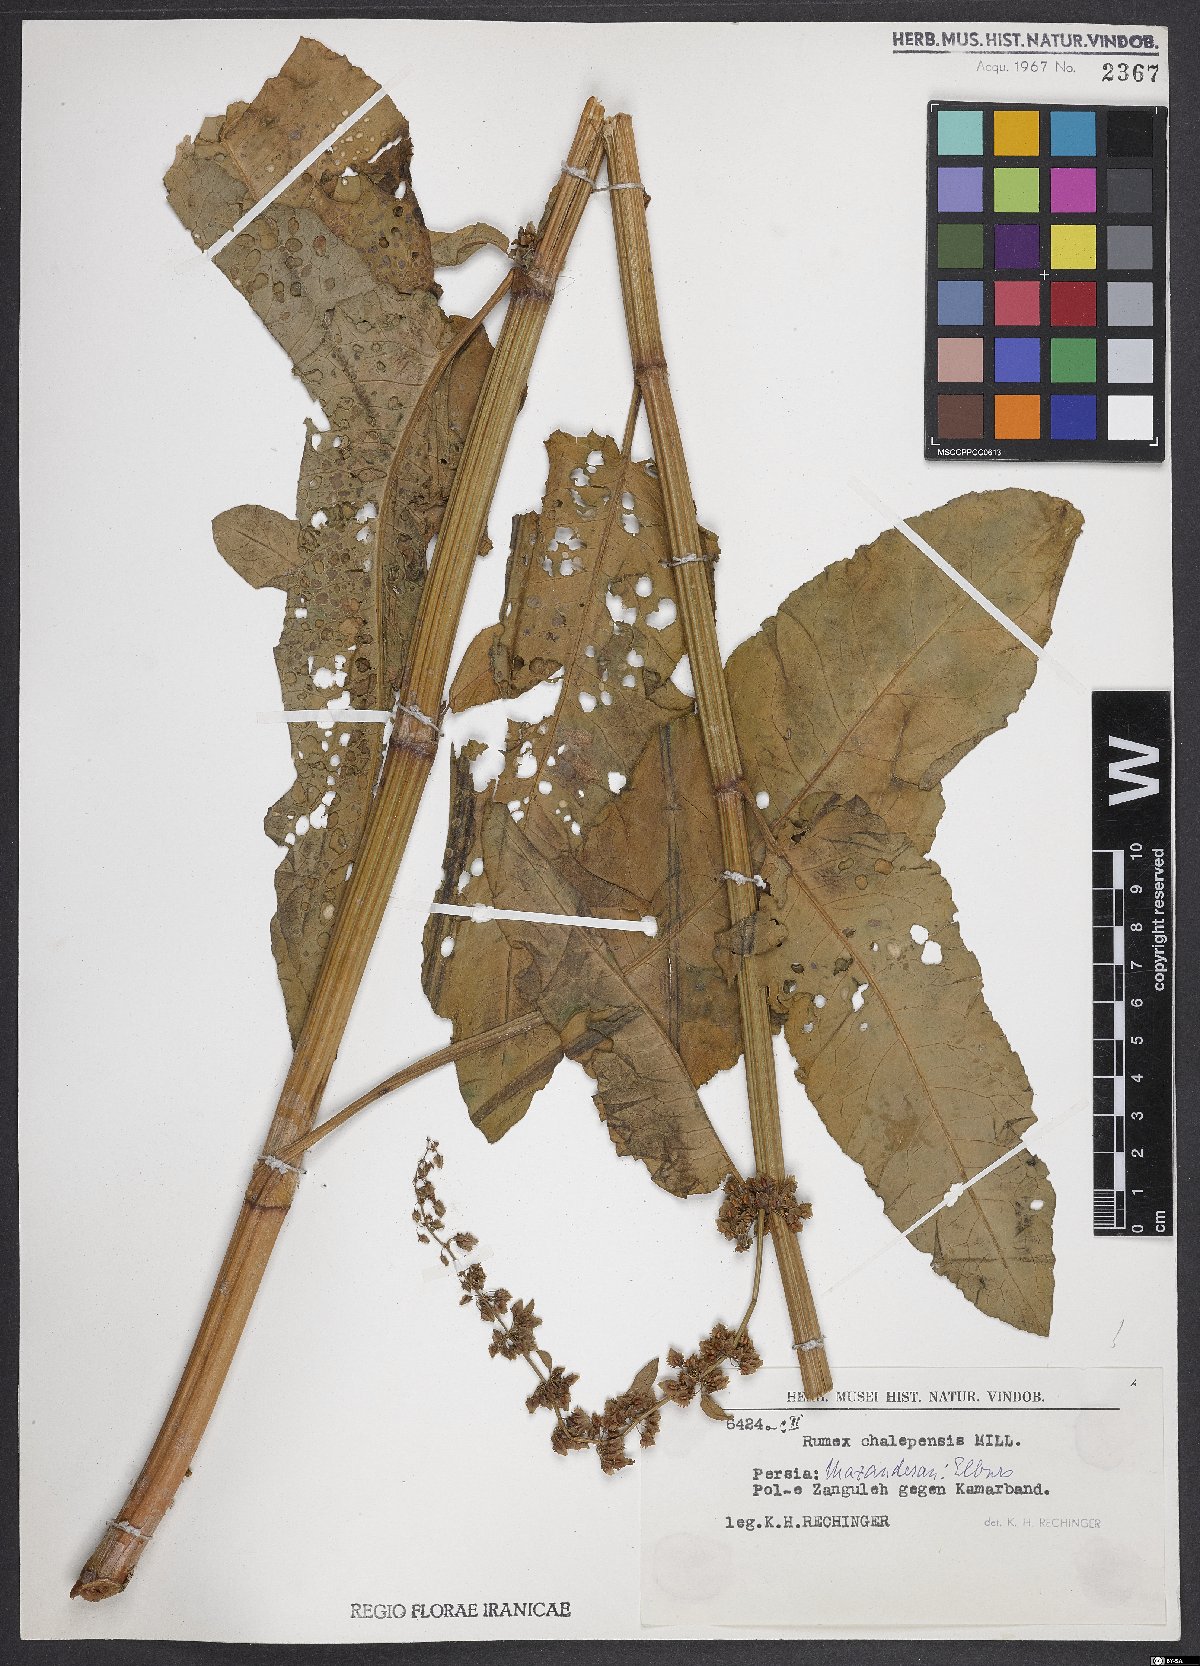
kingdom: Plantae
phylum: Tracheophyta
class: Magnoliopsida
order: Caryophyllales
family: Polygonaceae
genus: Rumex
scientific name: Rumex chalepensis
